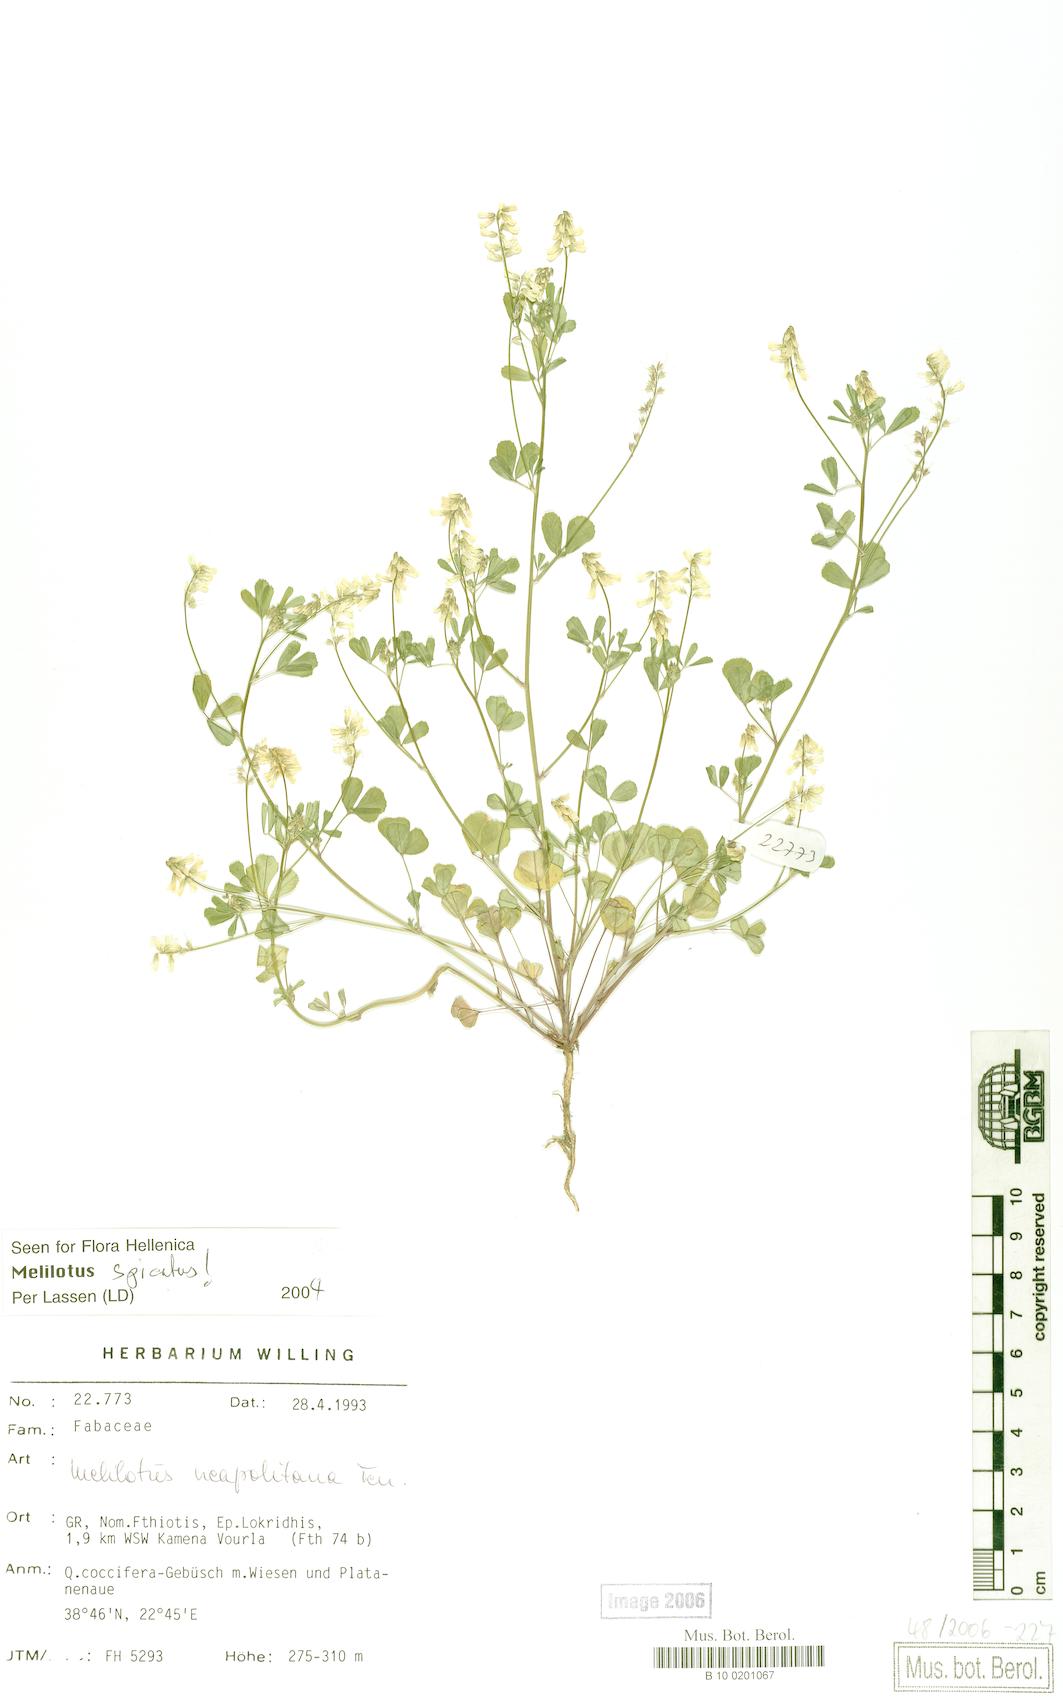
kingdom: Plantae
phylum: Tracheophyta
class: Magnoliopsida
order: Fabales
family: Fabaceae
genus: Melilotus
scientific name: Melilotus neapolitanus
